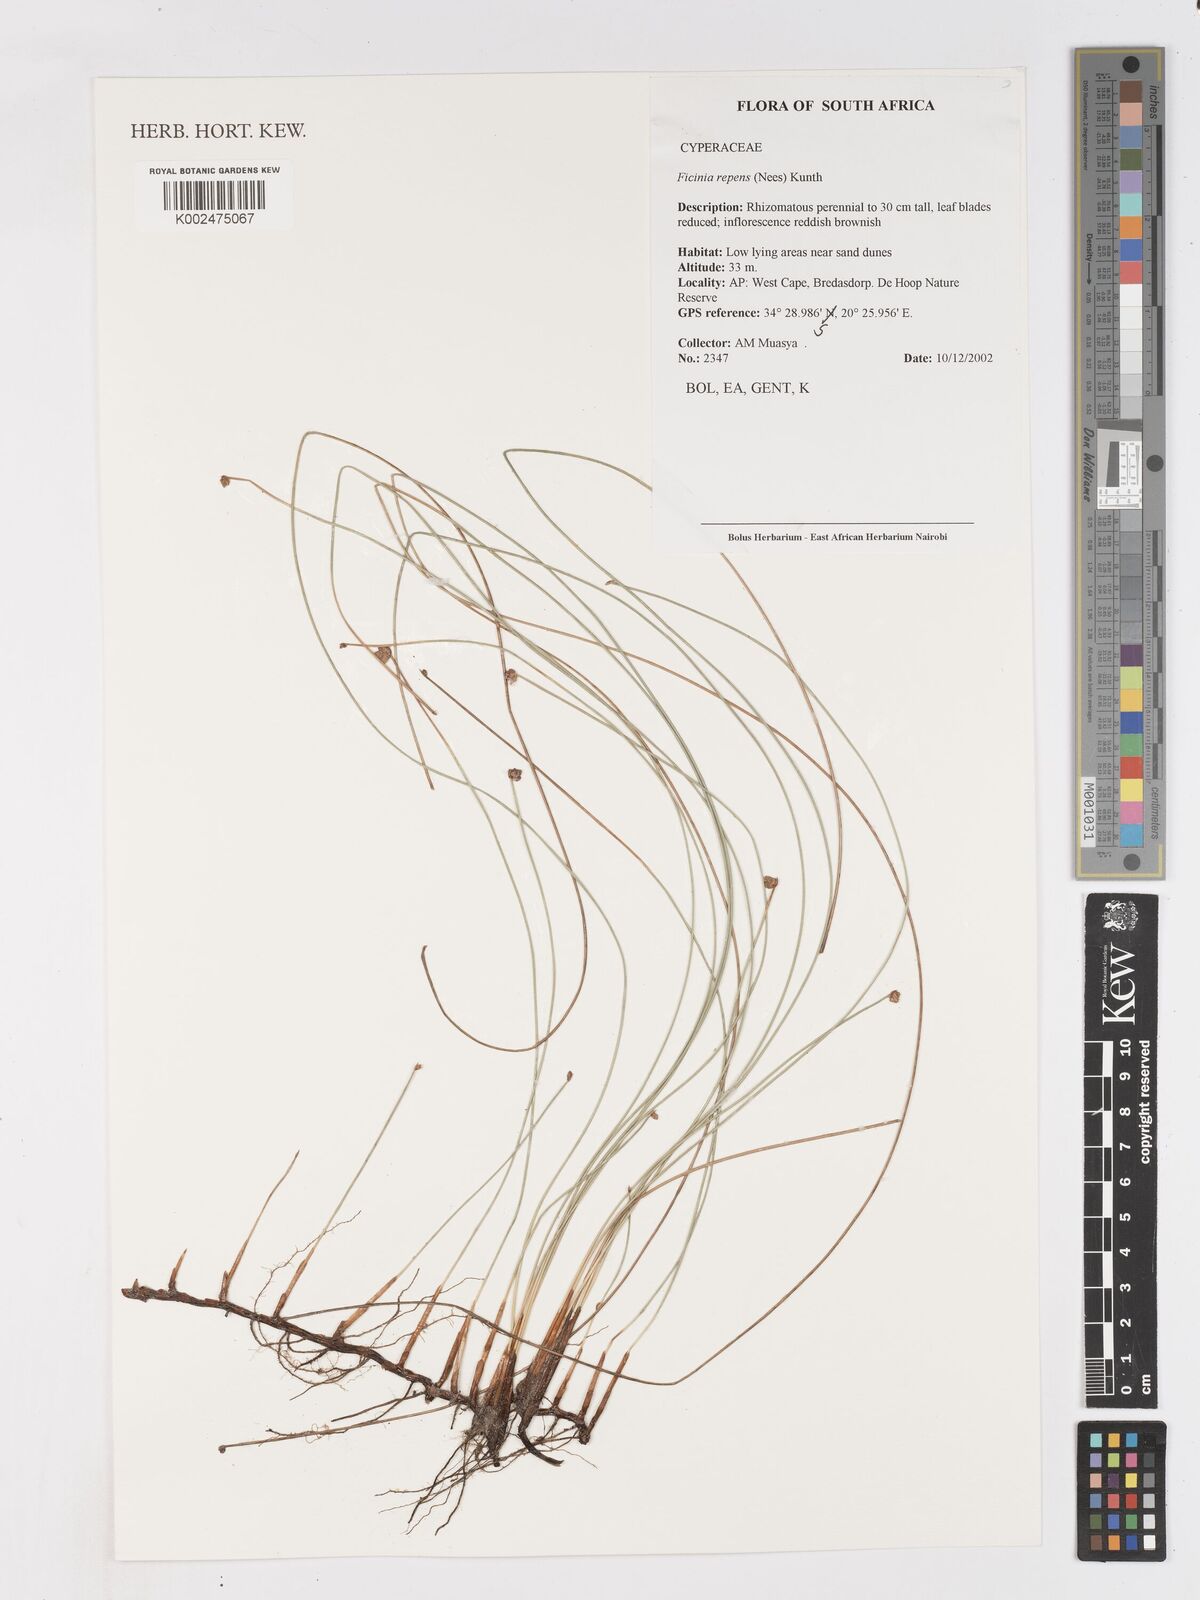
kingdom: Plantae
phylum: Tracheophyta
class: Liliopsida
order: Poales
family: Cyperaceae
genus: Ficinia
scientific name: Ficinia repens
